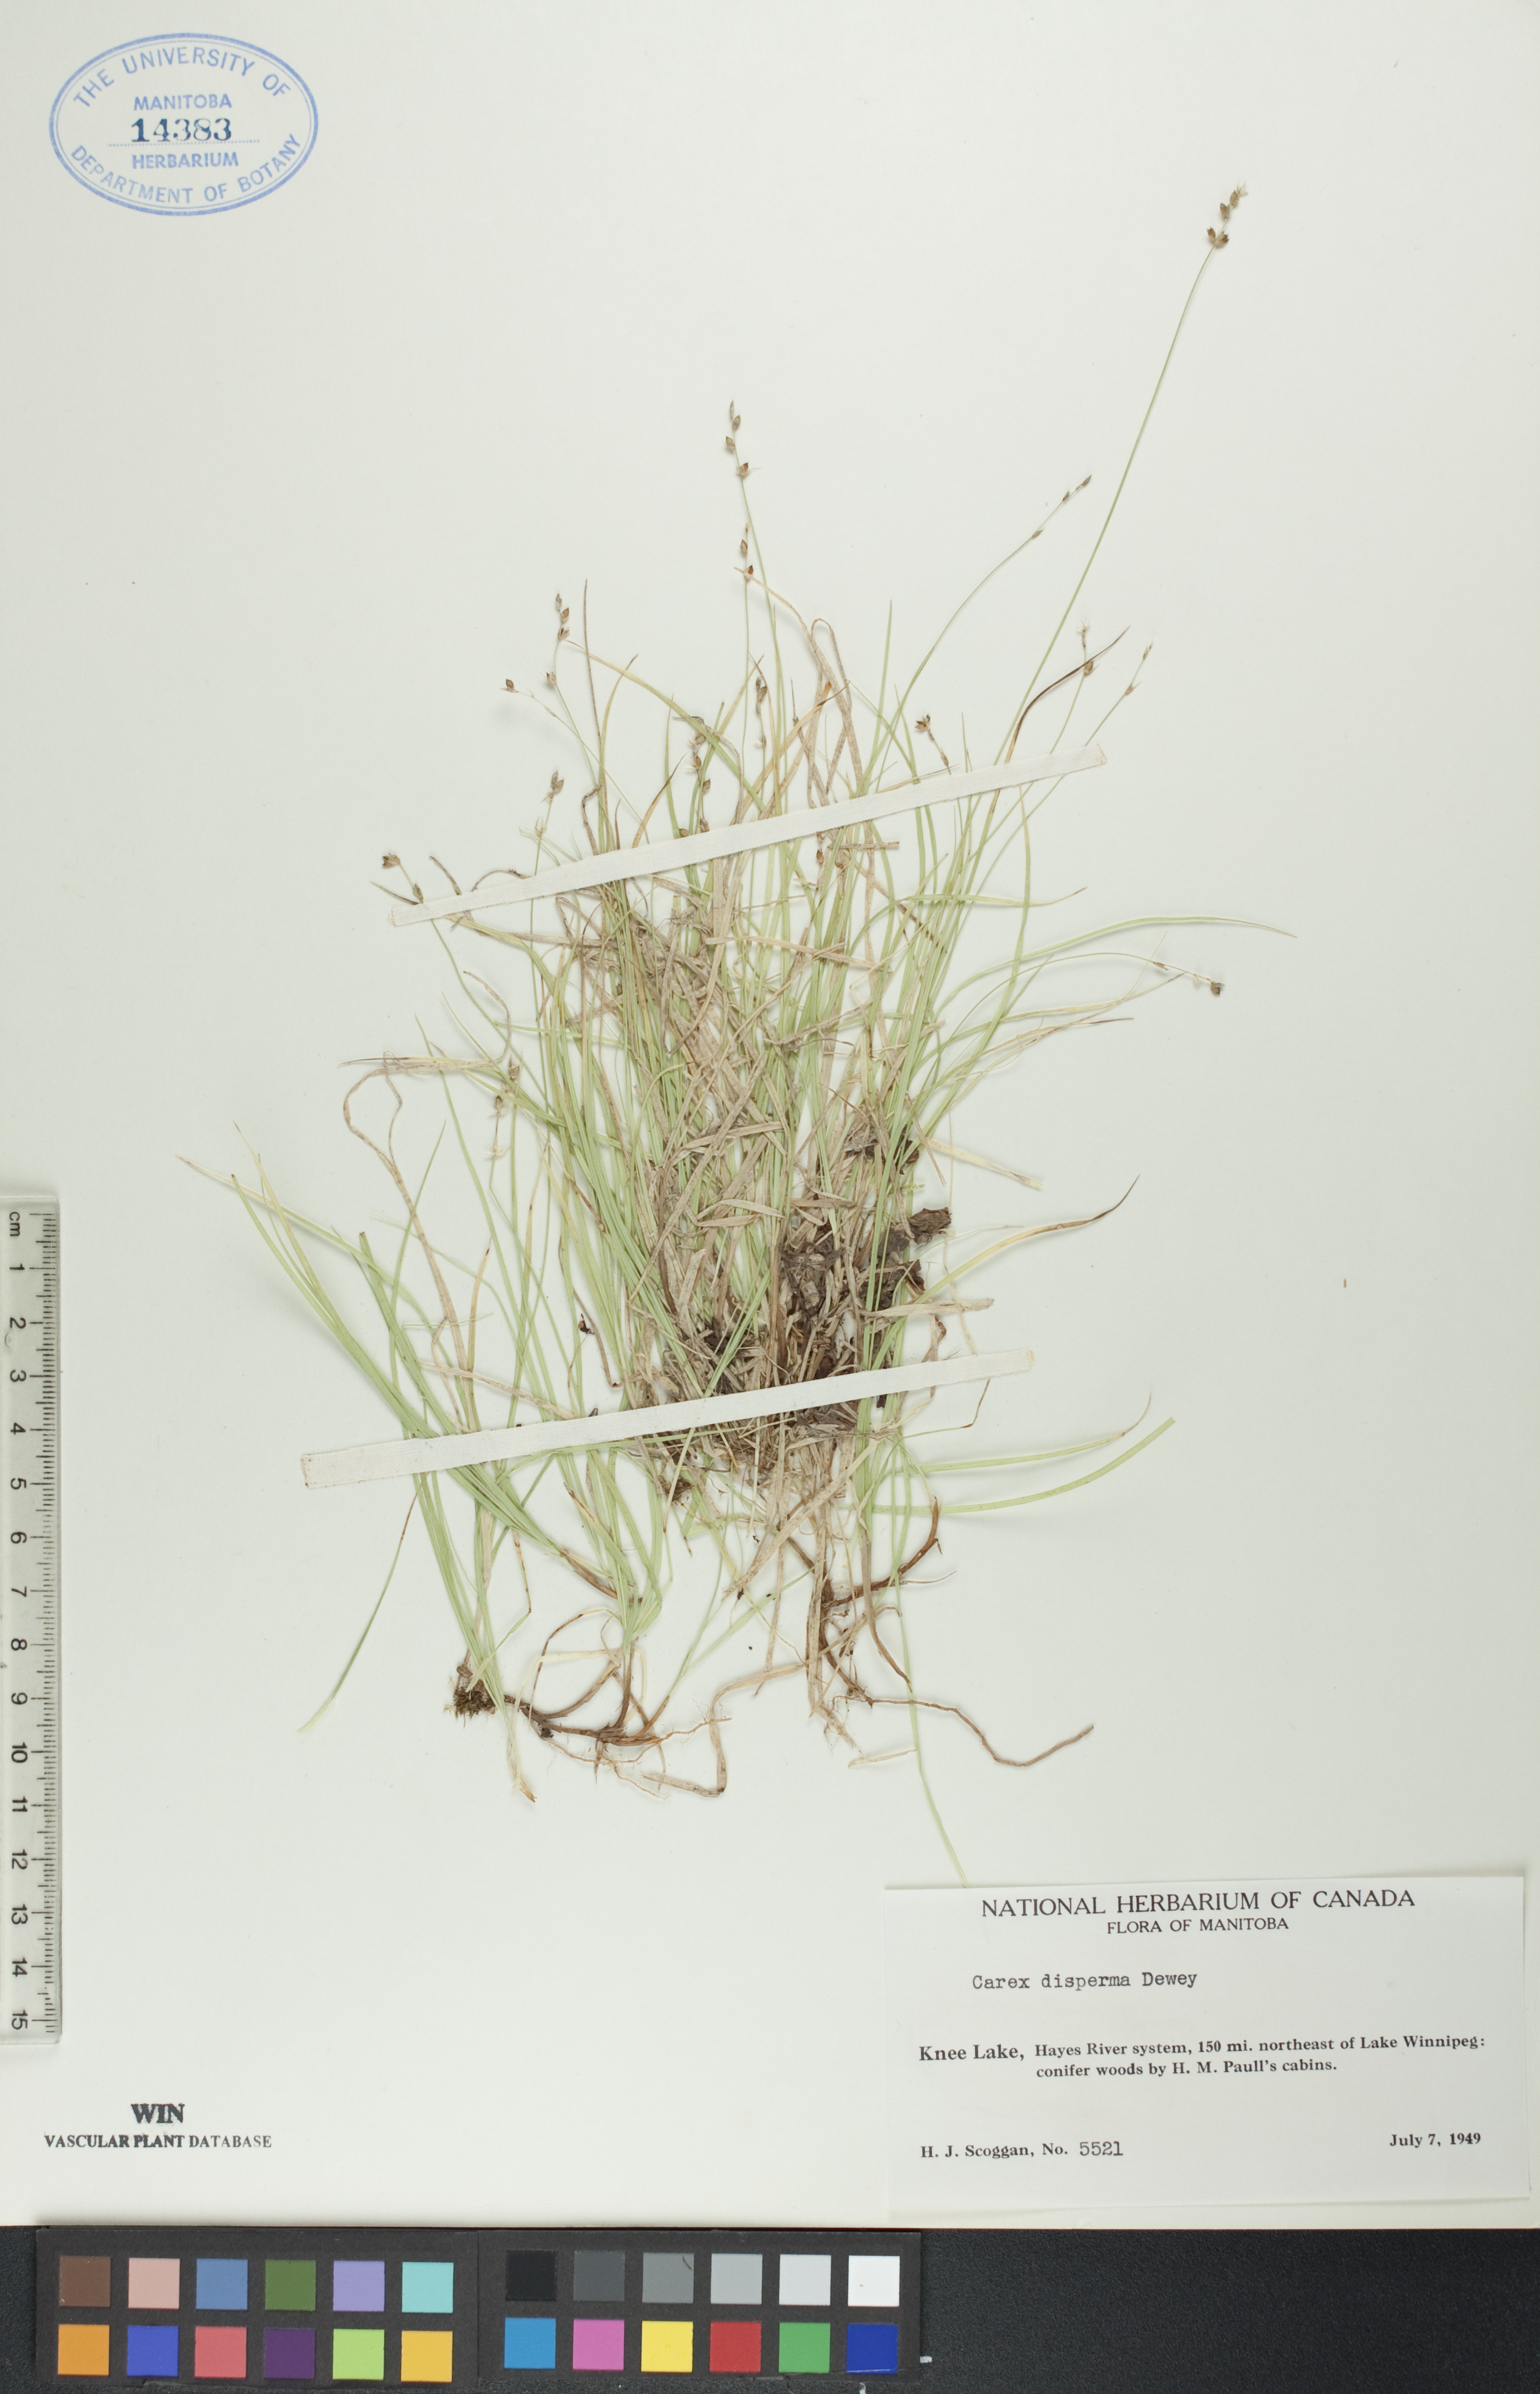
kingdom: Plantae
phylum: Tracheophyta
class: Liliopsida
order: Poales
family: Cyperaceae
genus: Carex
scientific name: Carex disperma
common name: Short-leaved sedge
